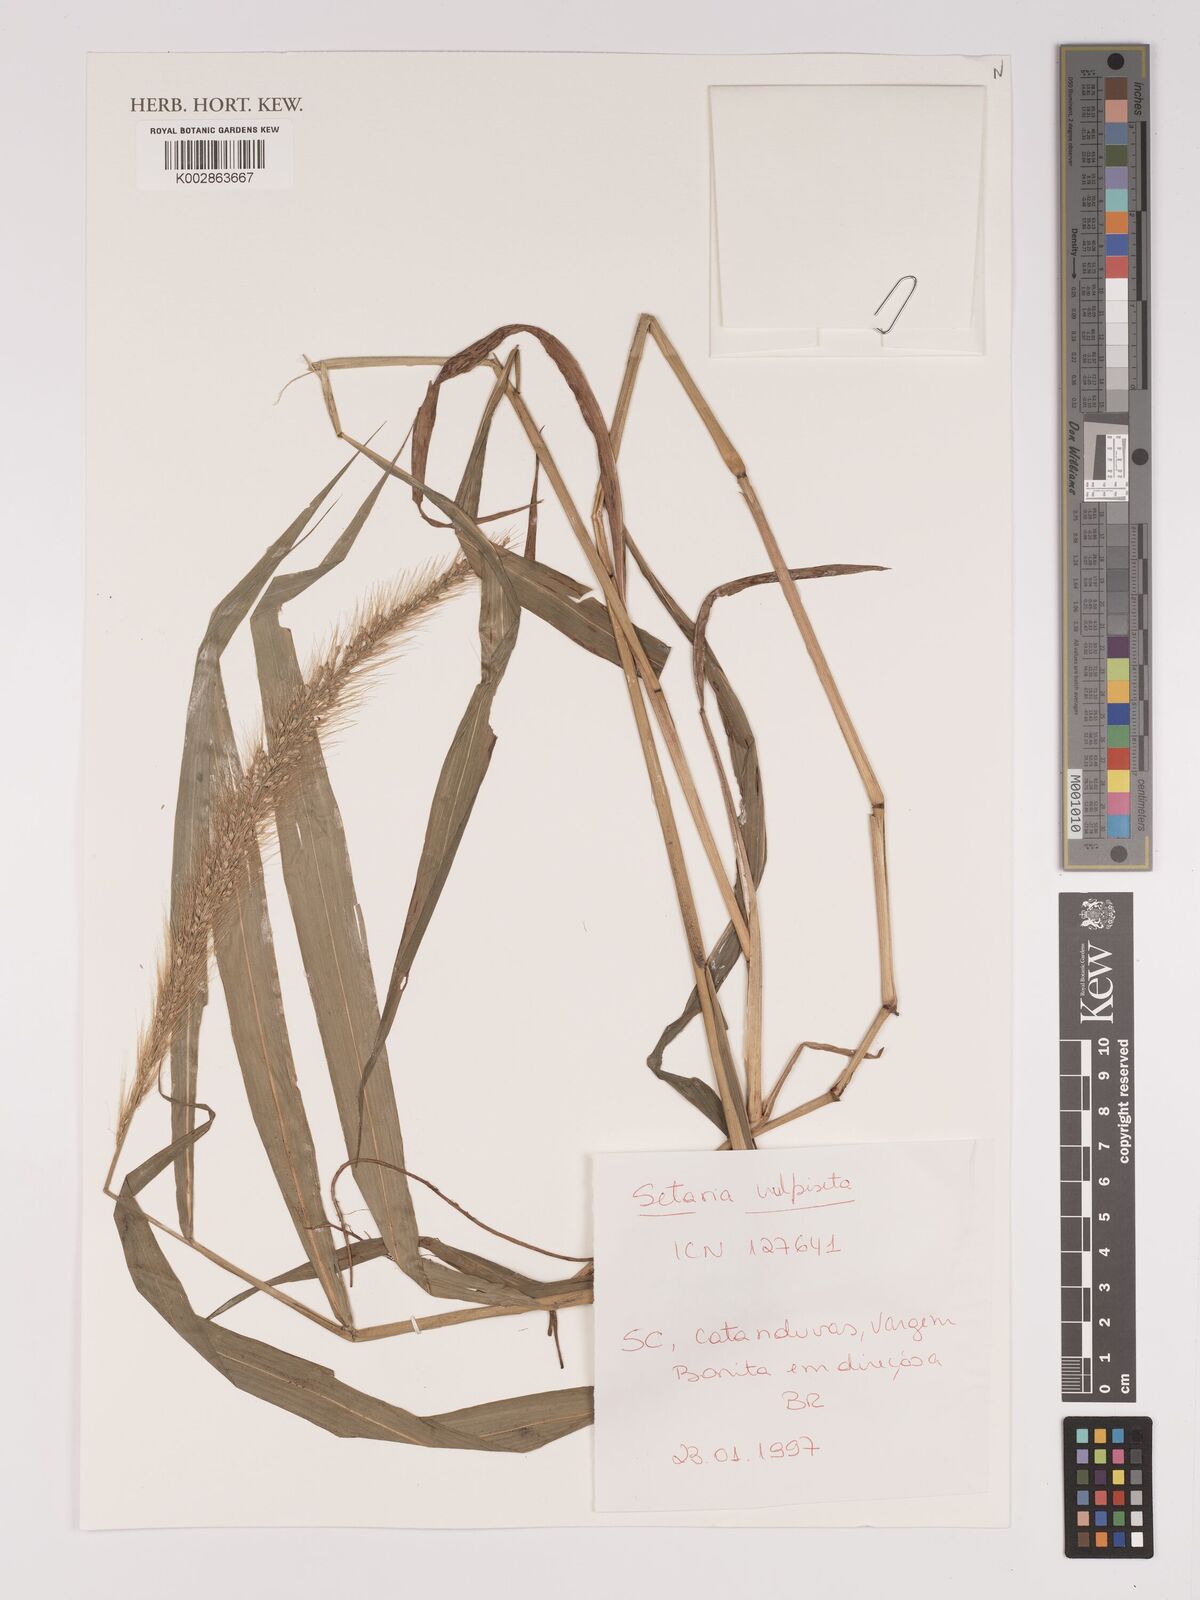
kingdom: Plantae
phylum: Tracheophyta
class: Liliopsida
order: Poales
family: Poaceae
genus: Setaria
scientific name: Setaria vulpiseta
